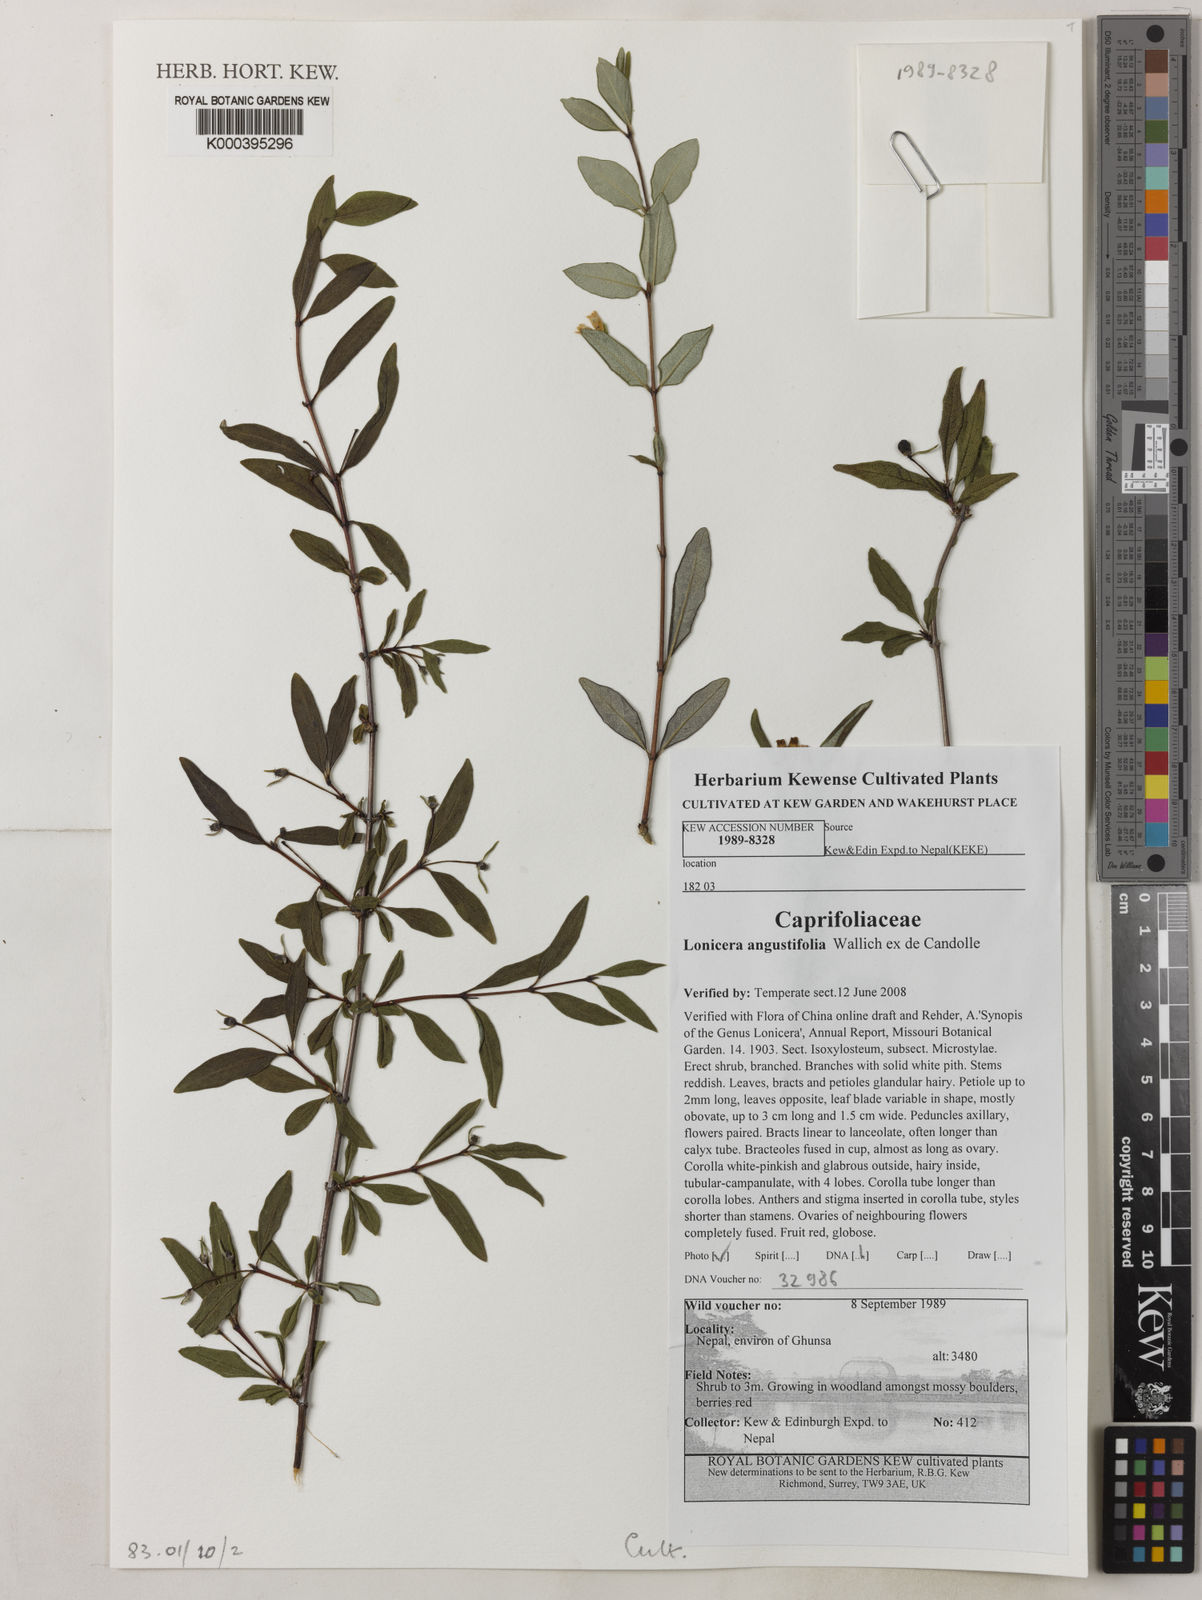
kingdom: Plantae
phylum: Tracheophyta
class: Magnoliopsida
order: Dipsacales
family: Caprifoliaceae
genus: Lonicera
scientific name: Lonicera
